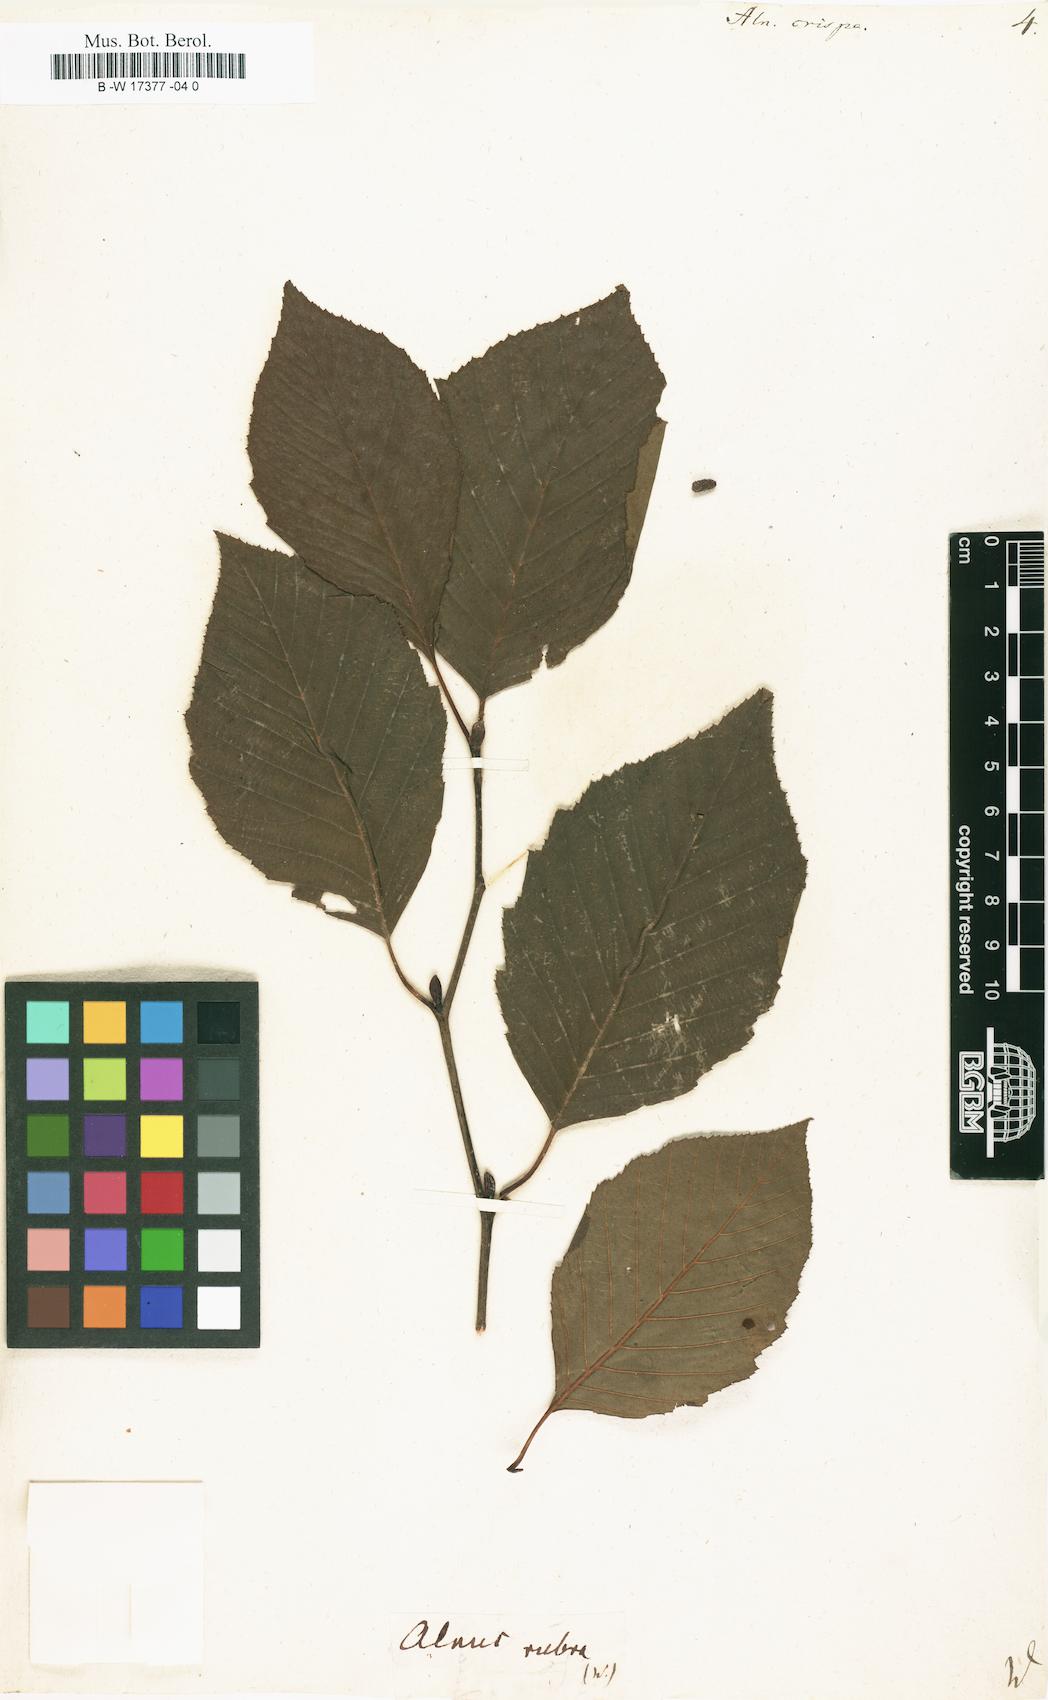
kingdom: Plantae
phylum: Tracheophyta
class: Magnoliopsida
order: Fagales
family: Betulaceae
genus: Alnus
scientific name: Alnus alnobetula
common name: Green alder
